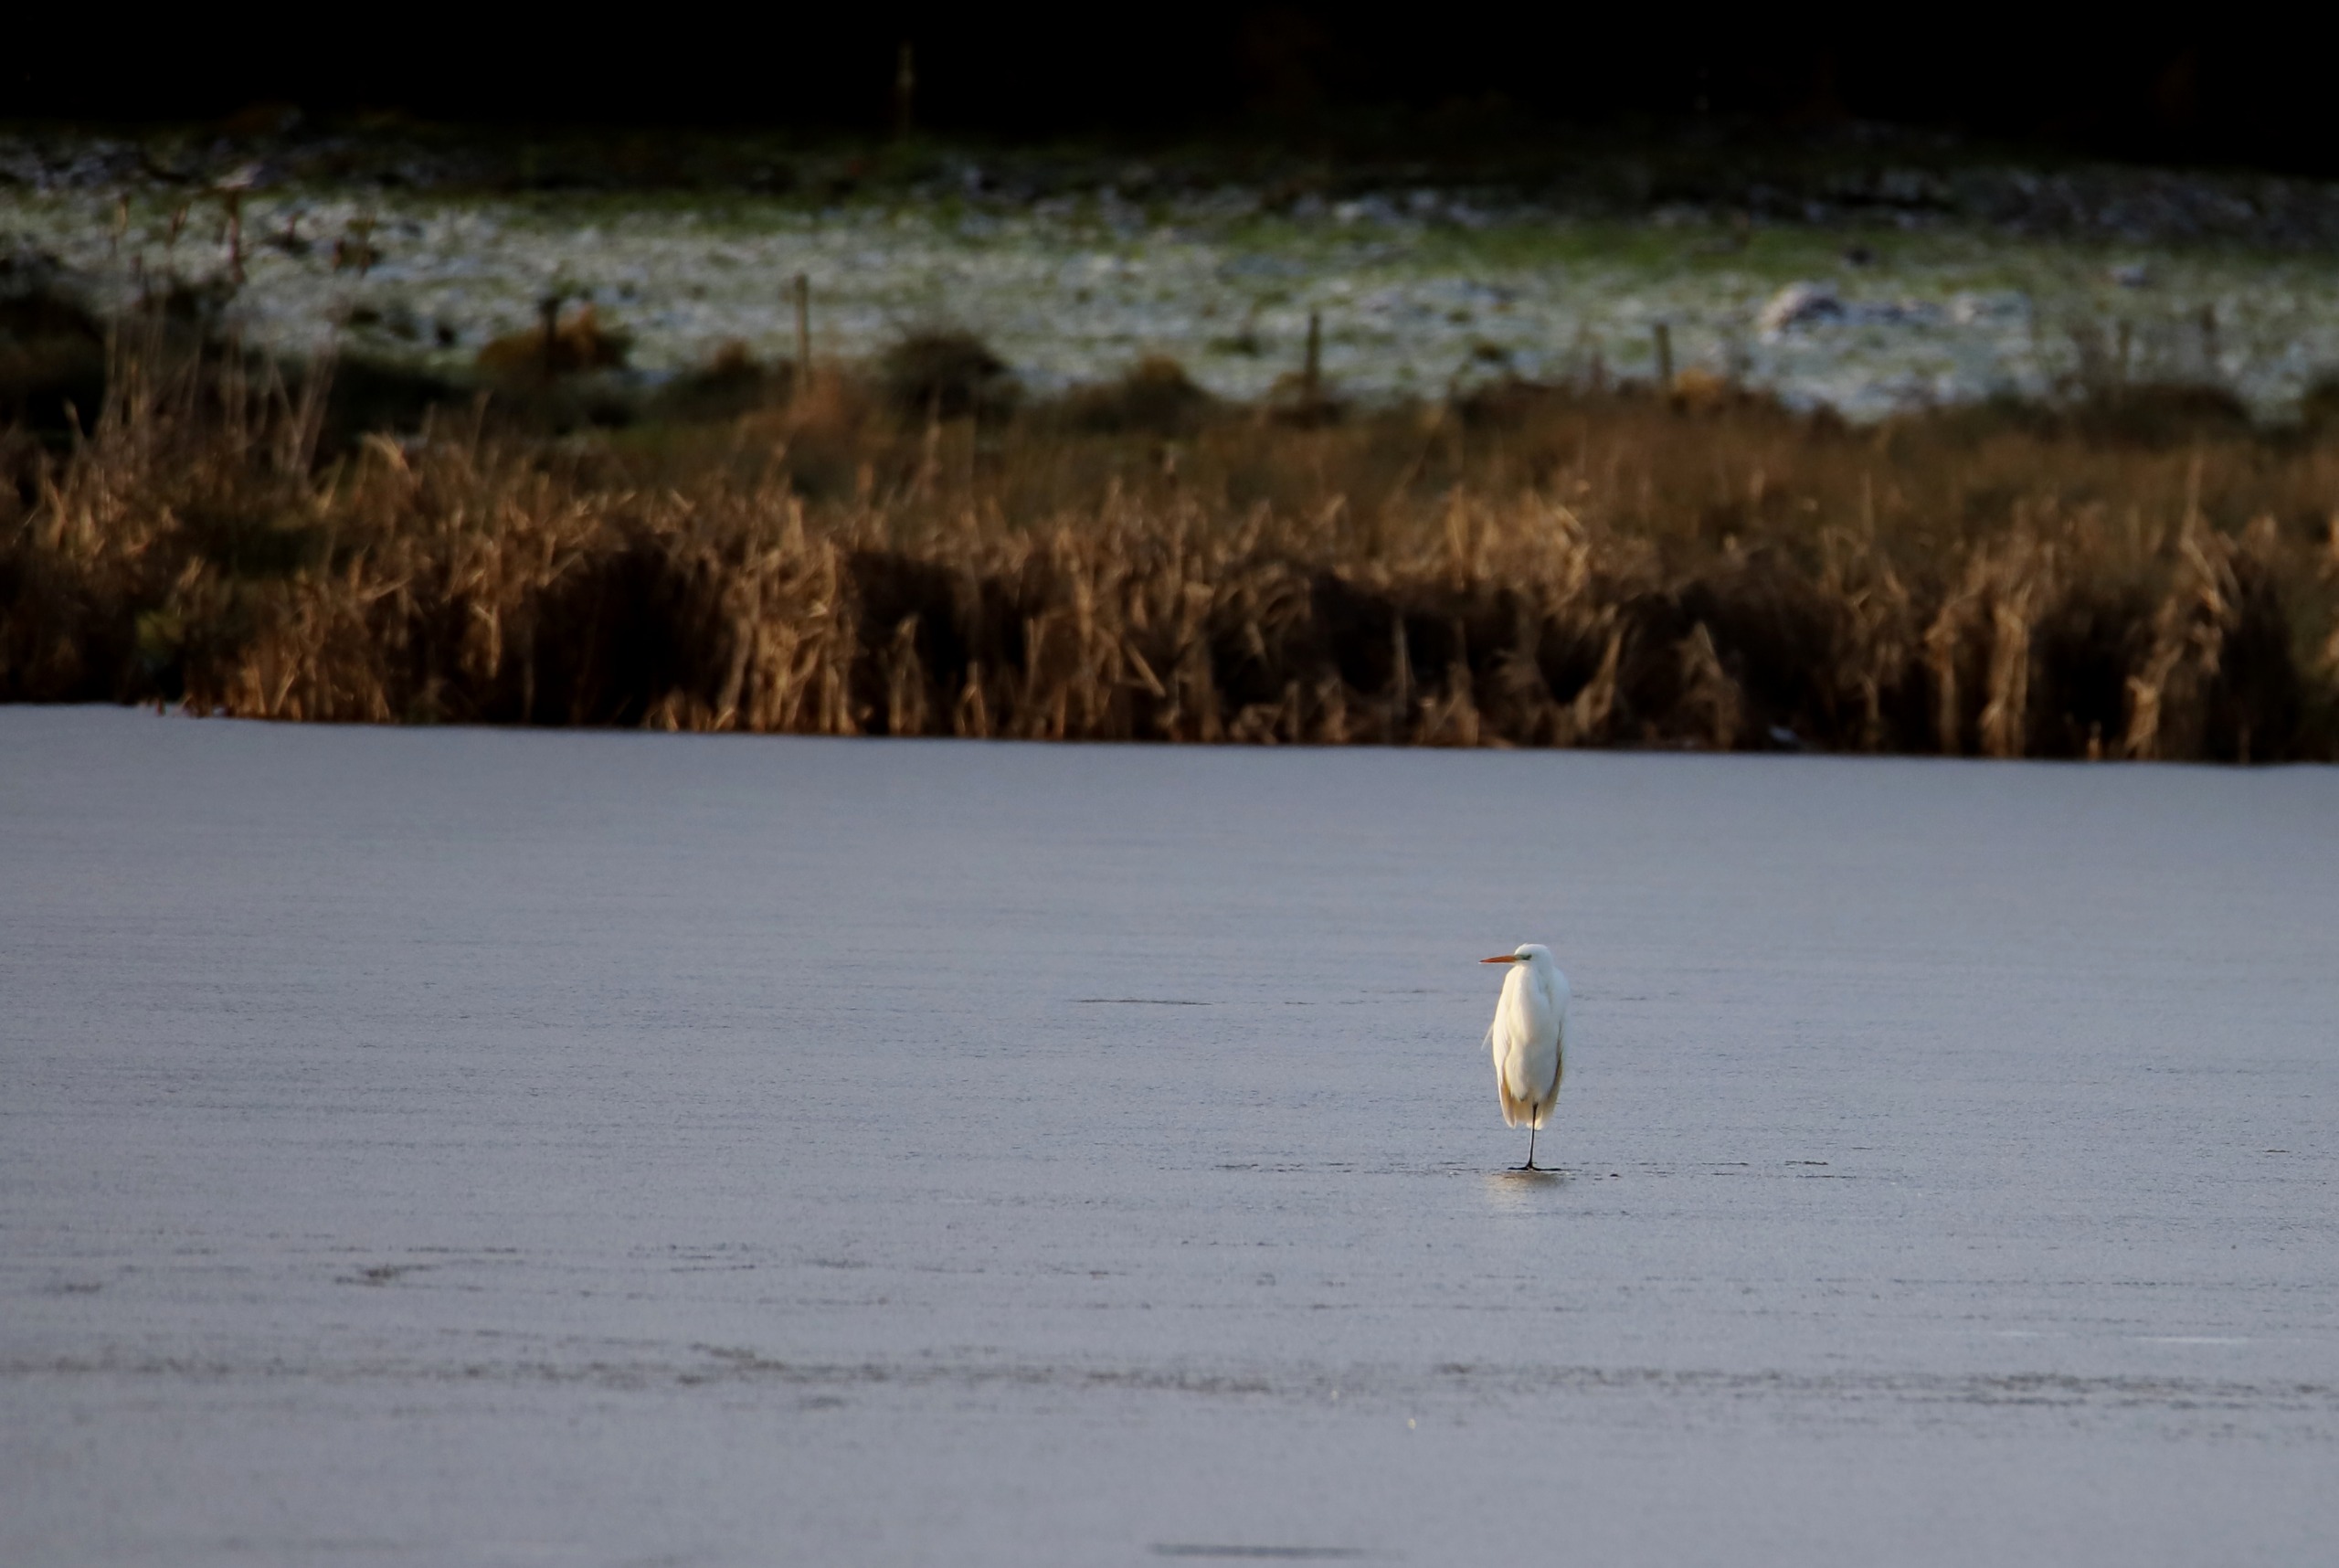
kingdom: Animalia
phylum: Chordata
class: Aves
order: Pelecaniformes
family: Ardeidae
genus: Ardea
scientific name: Ardea alba
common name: Sølvhejre
